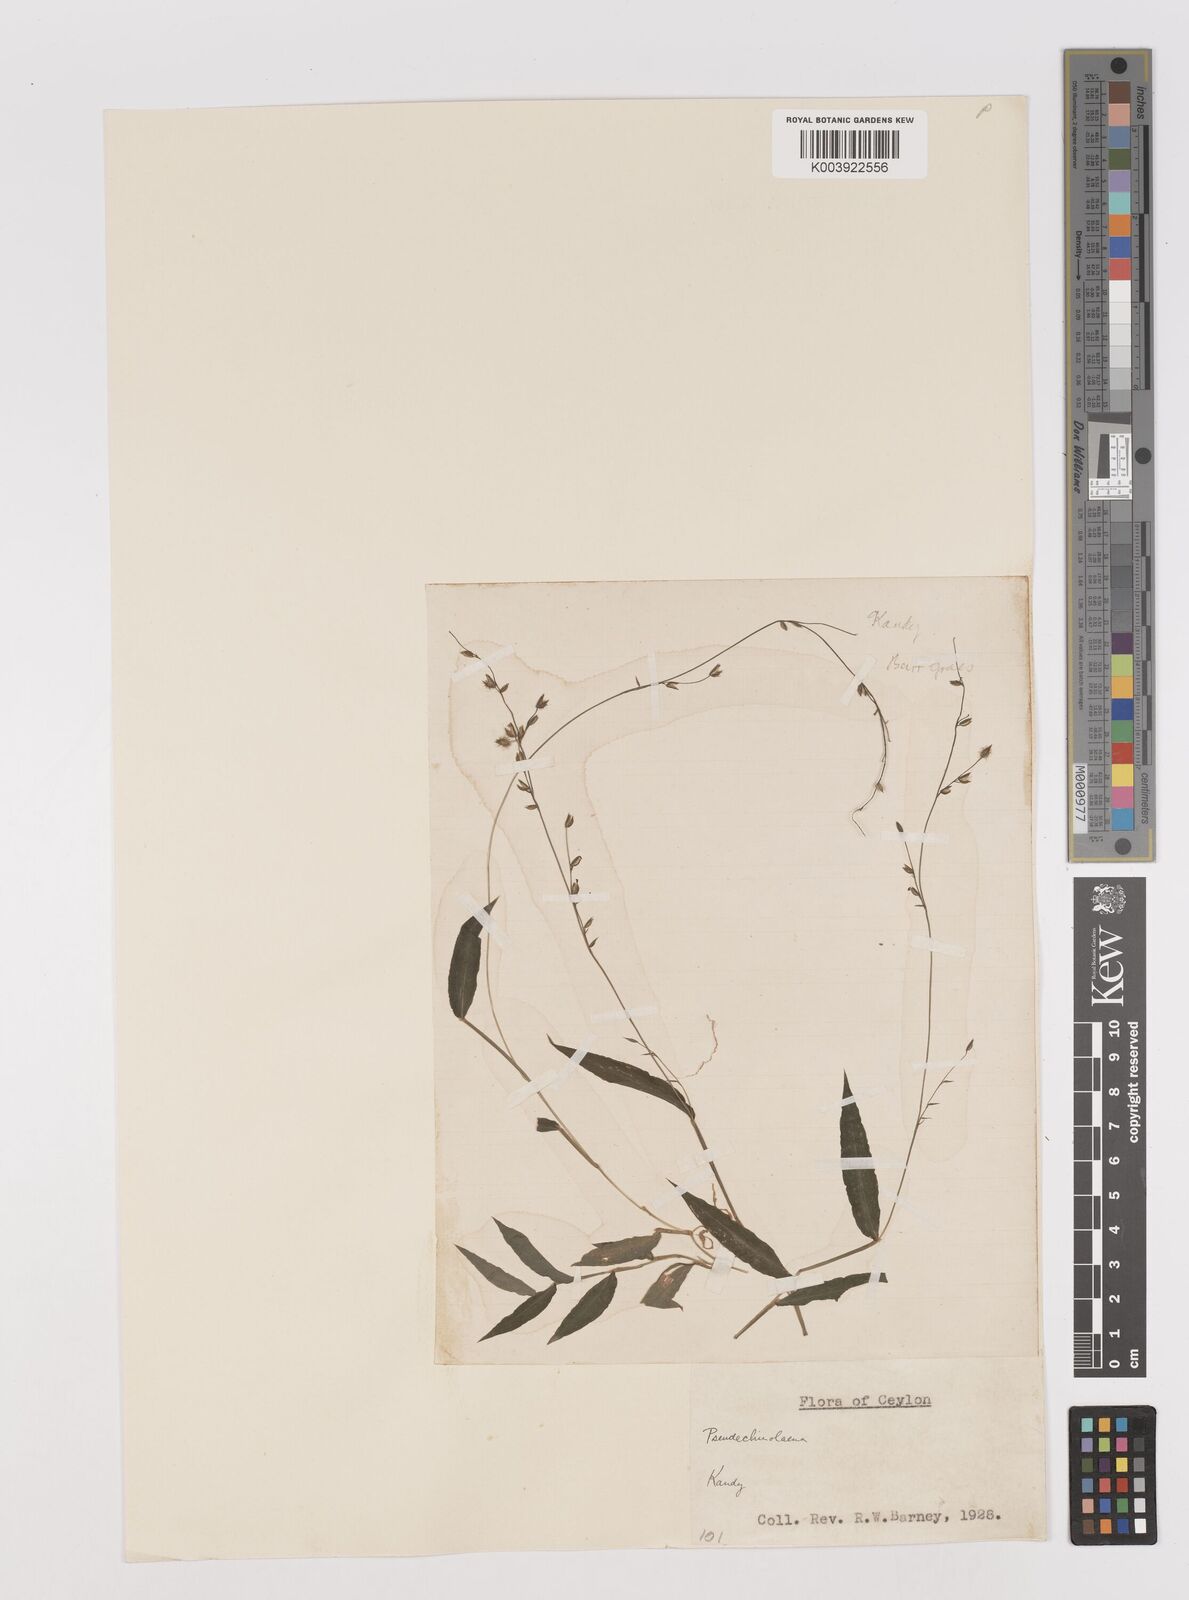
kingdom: Plantae
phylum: Tracheophyta
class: Liliopsida
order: Poales
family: Poaceae
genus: Pseudechinolaena
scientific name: Pseudechinolaena polystachya
